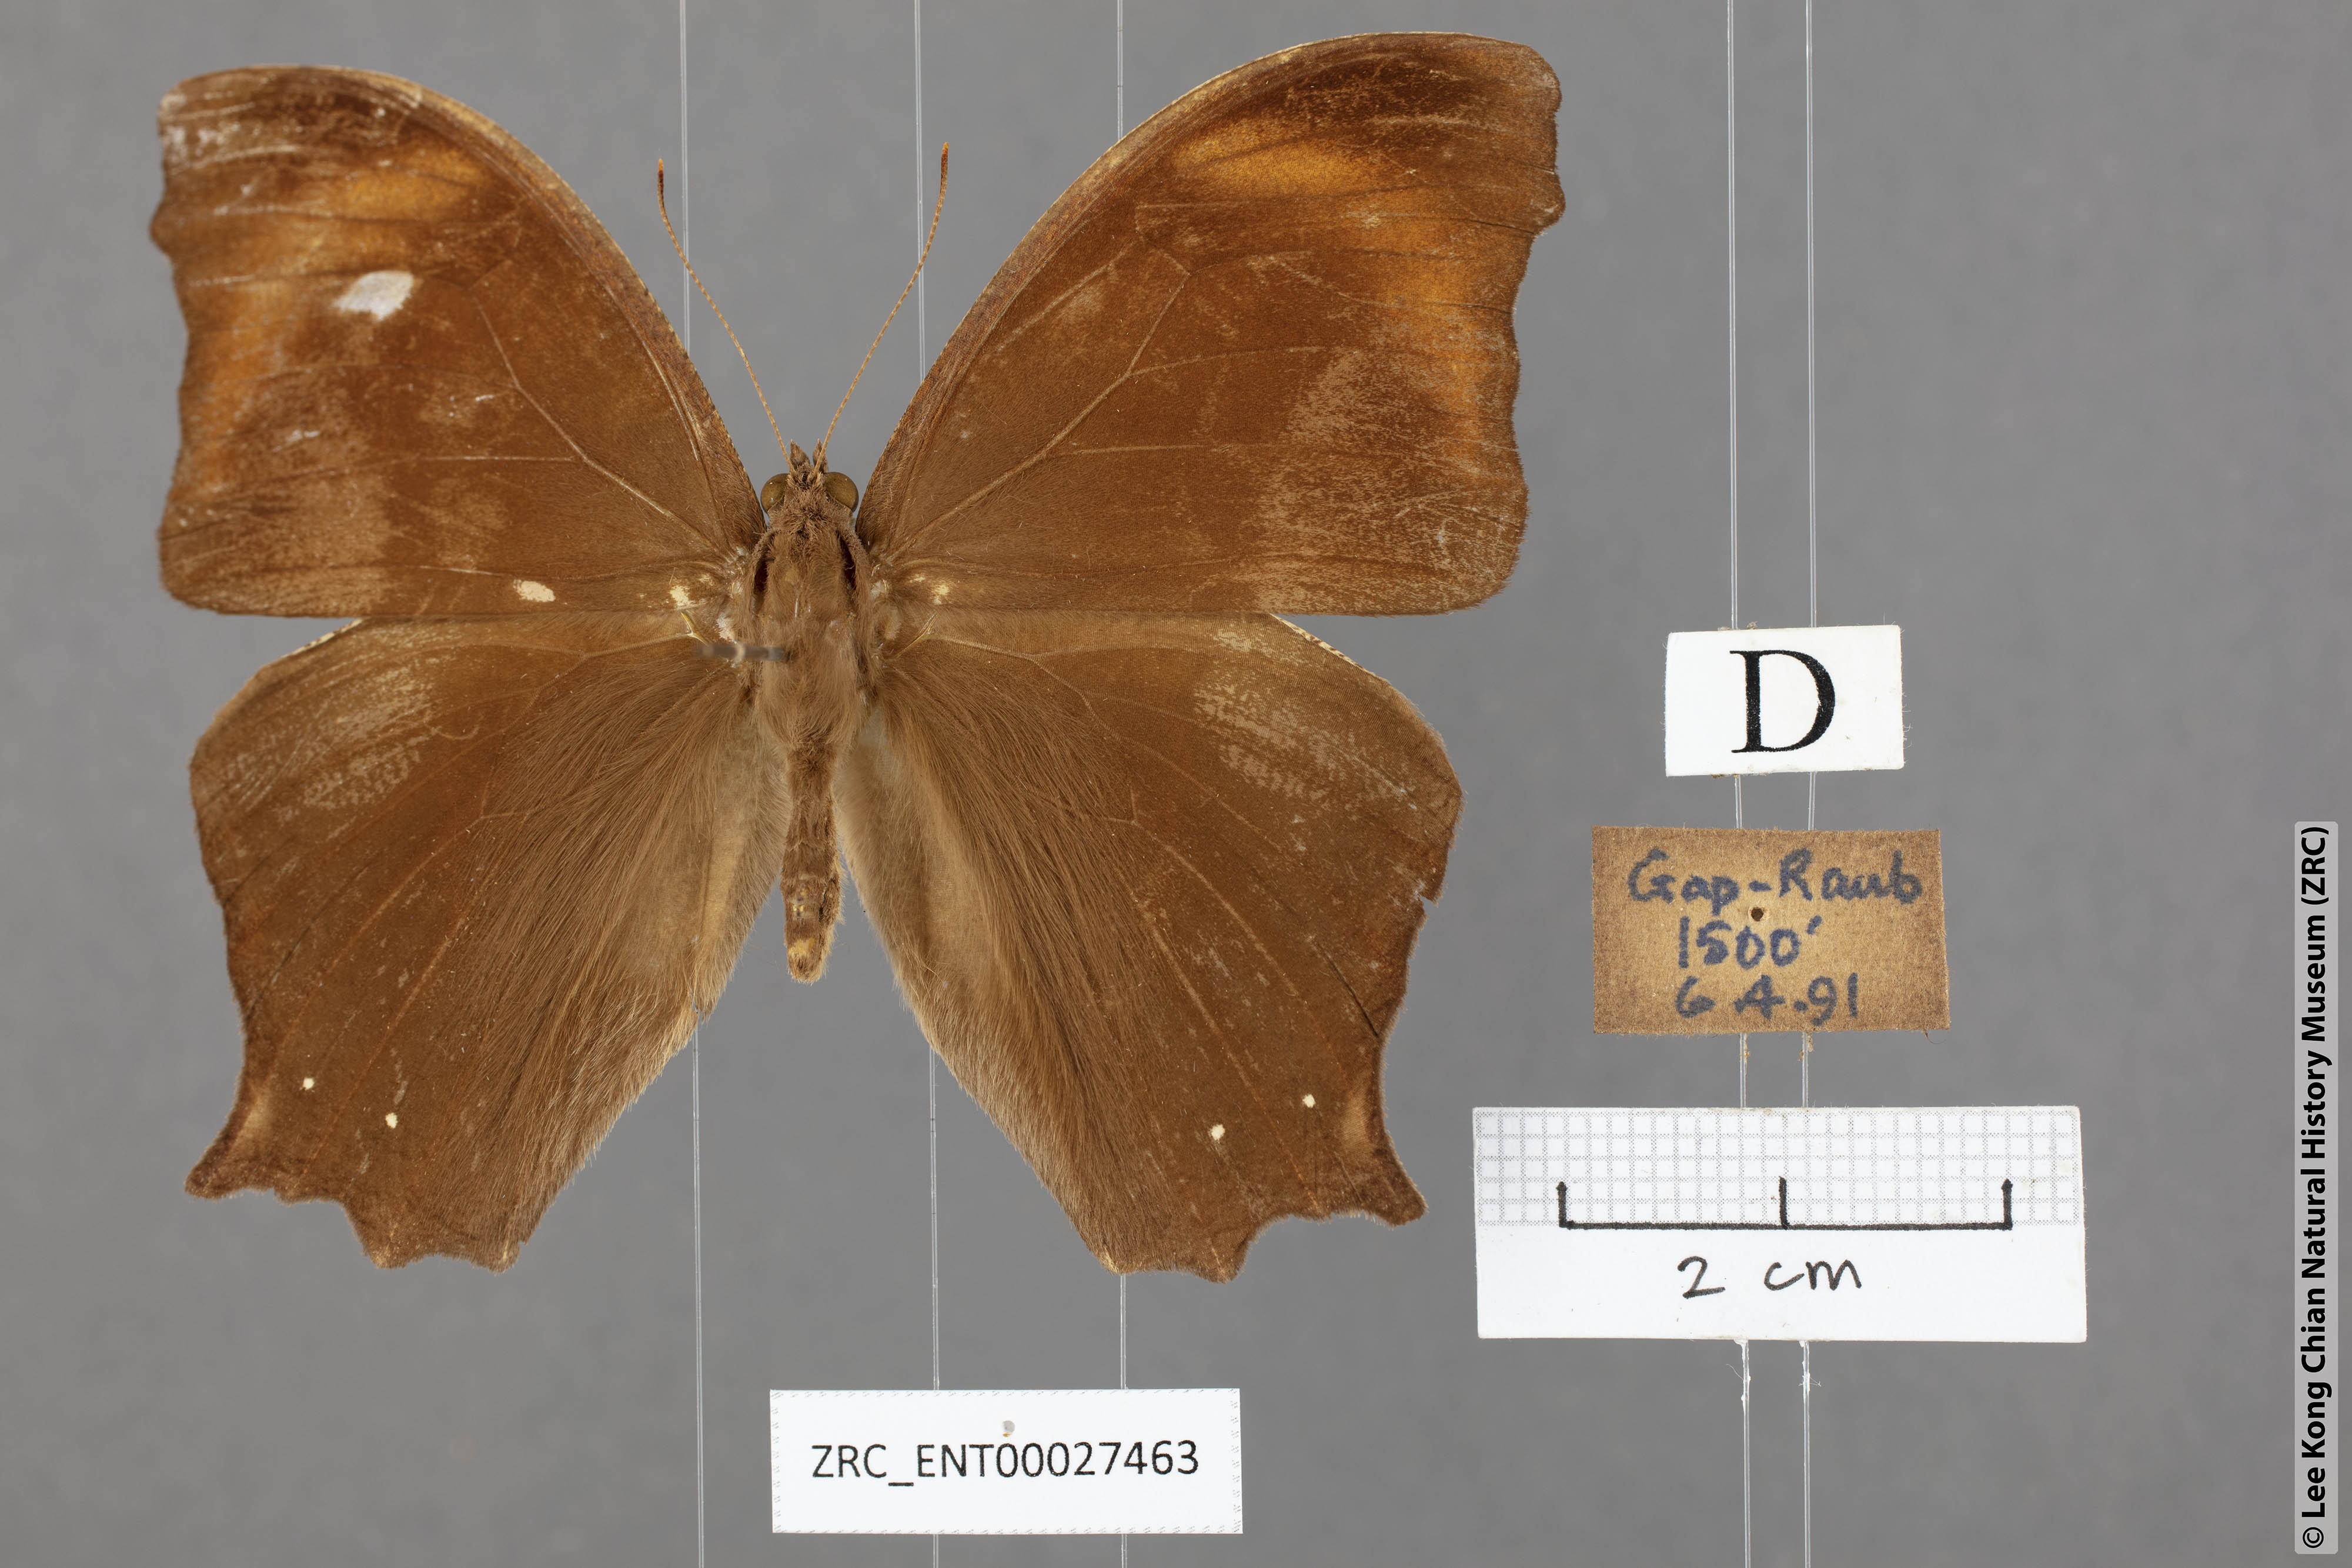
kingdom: Animalia
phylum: Arthropoda
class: Insecta
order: Lepidoptera
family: Nymphalidae
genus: Melanitis
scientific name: Melanitis phedima
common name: Dark evening brown
